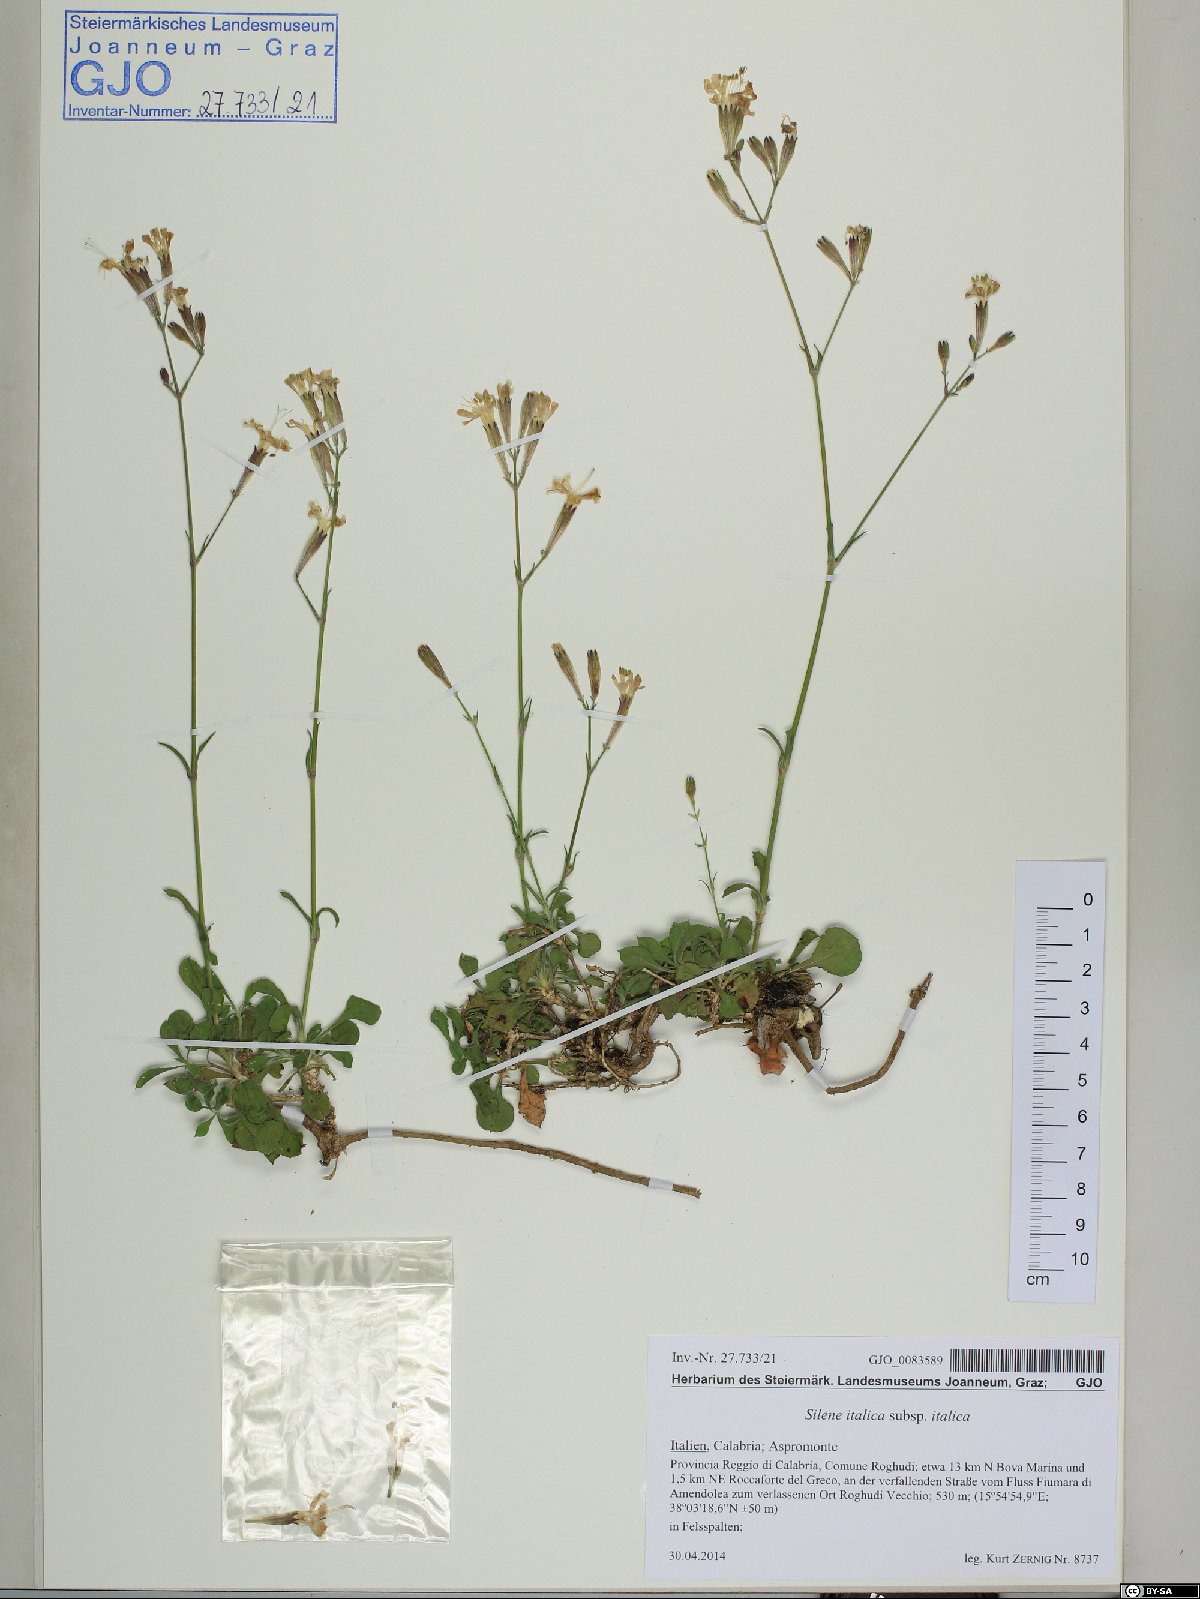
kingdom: Plantae
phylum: Tracheophyta
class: Magnoliopsida
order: Caryophyllales
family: Caryophyllaceae
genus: Silene
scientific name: Silene italica
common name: Italian catchfly
